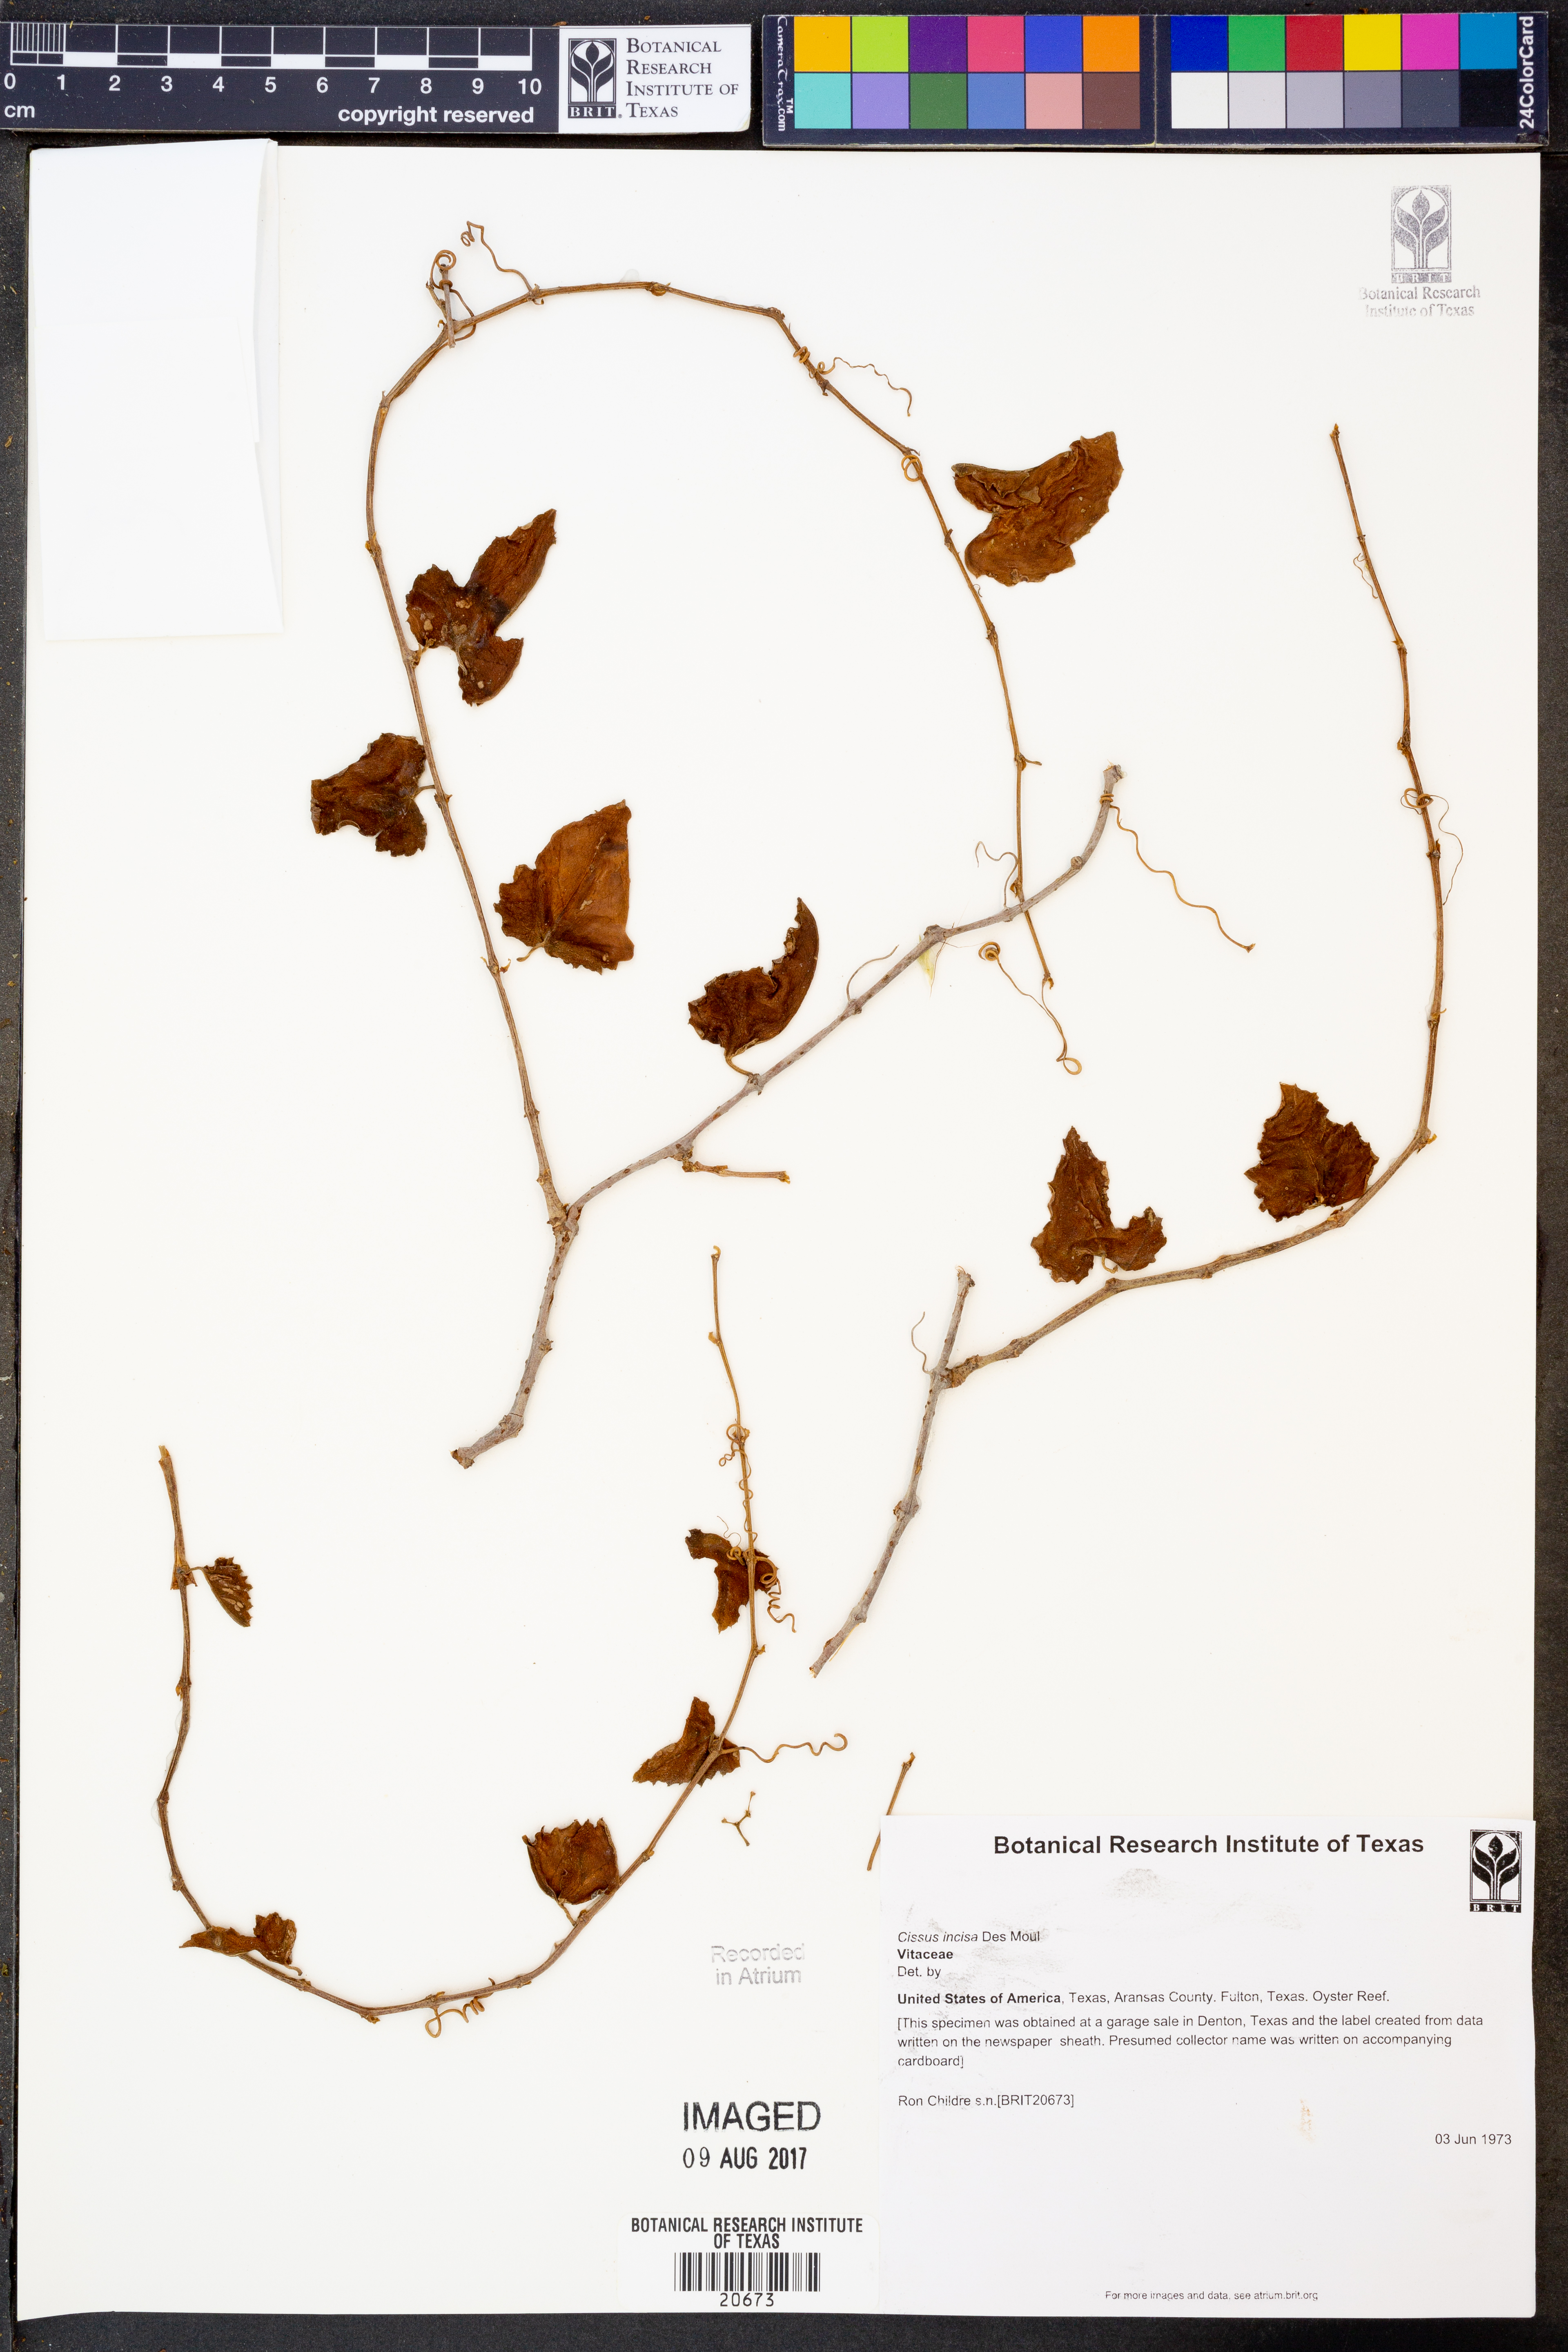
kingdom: Plantae
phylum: Tracheophyta
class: Magnoliopsida
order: Vitales
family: Vitaceae
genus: Cissus
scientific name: Cissus trifoliata
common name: Vine-sorrel
